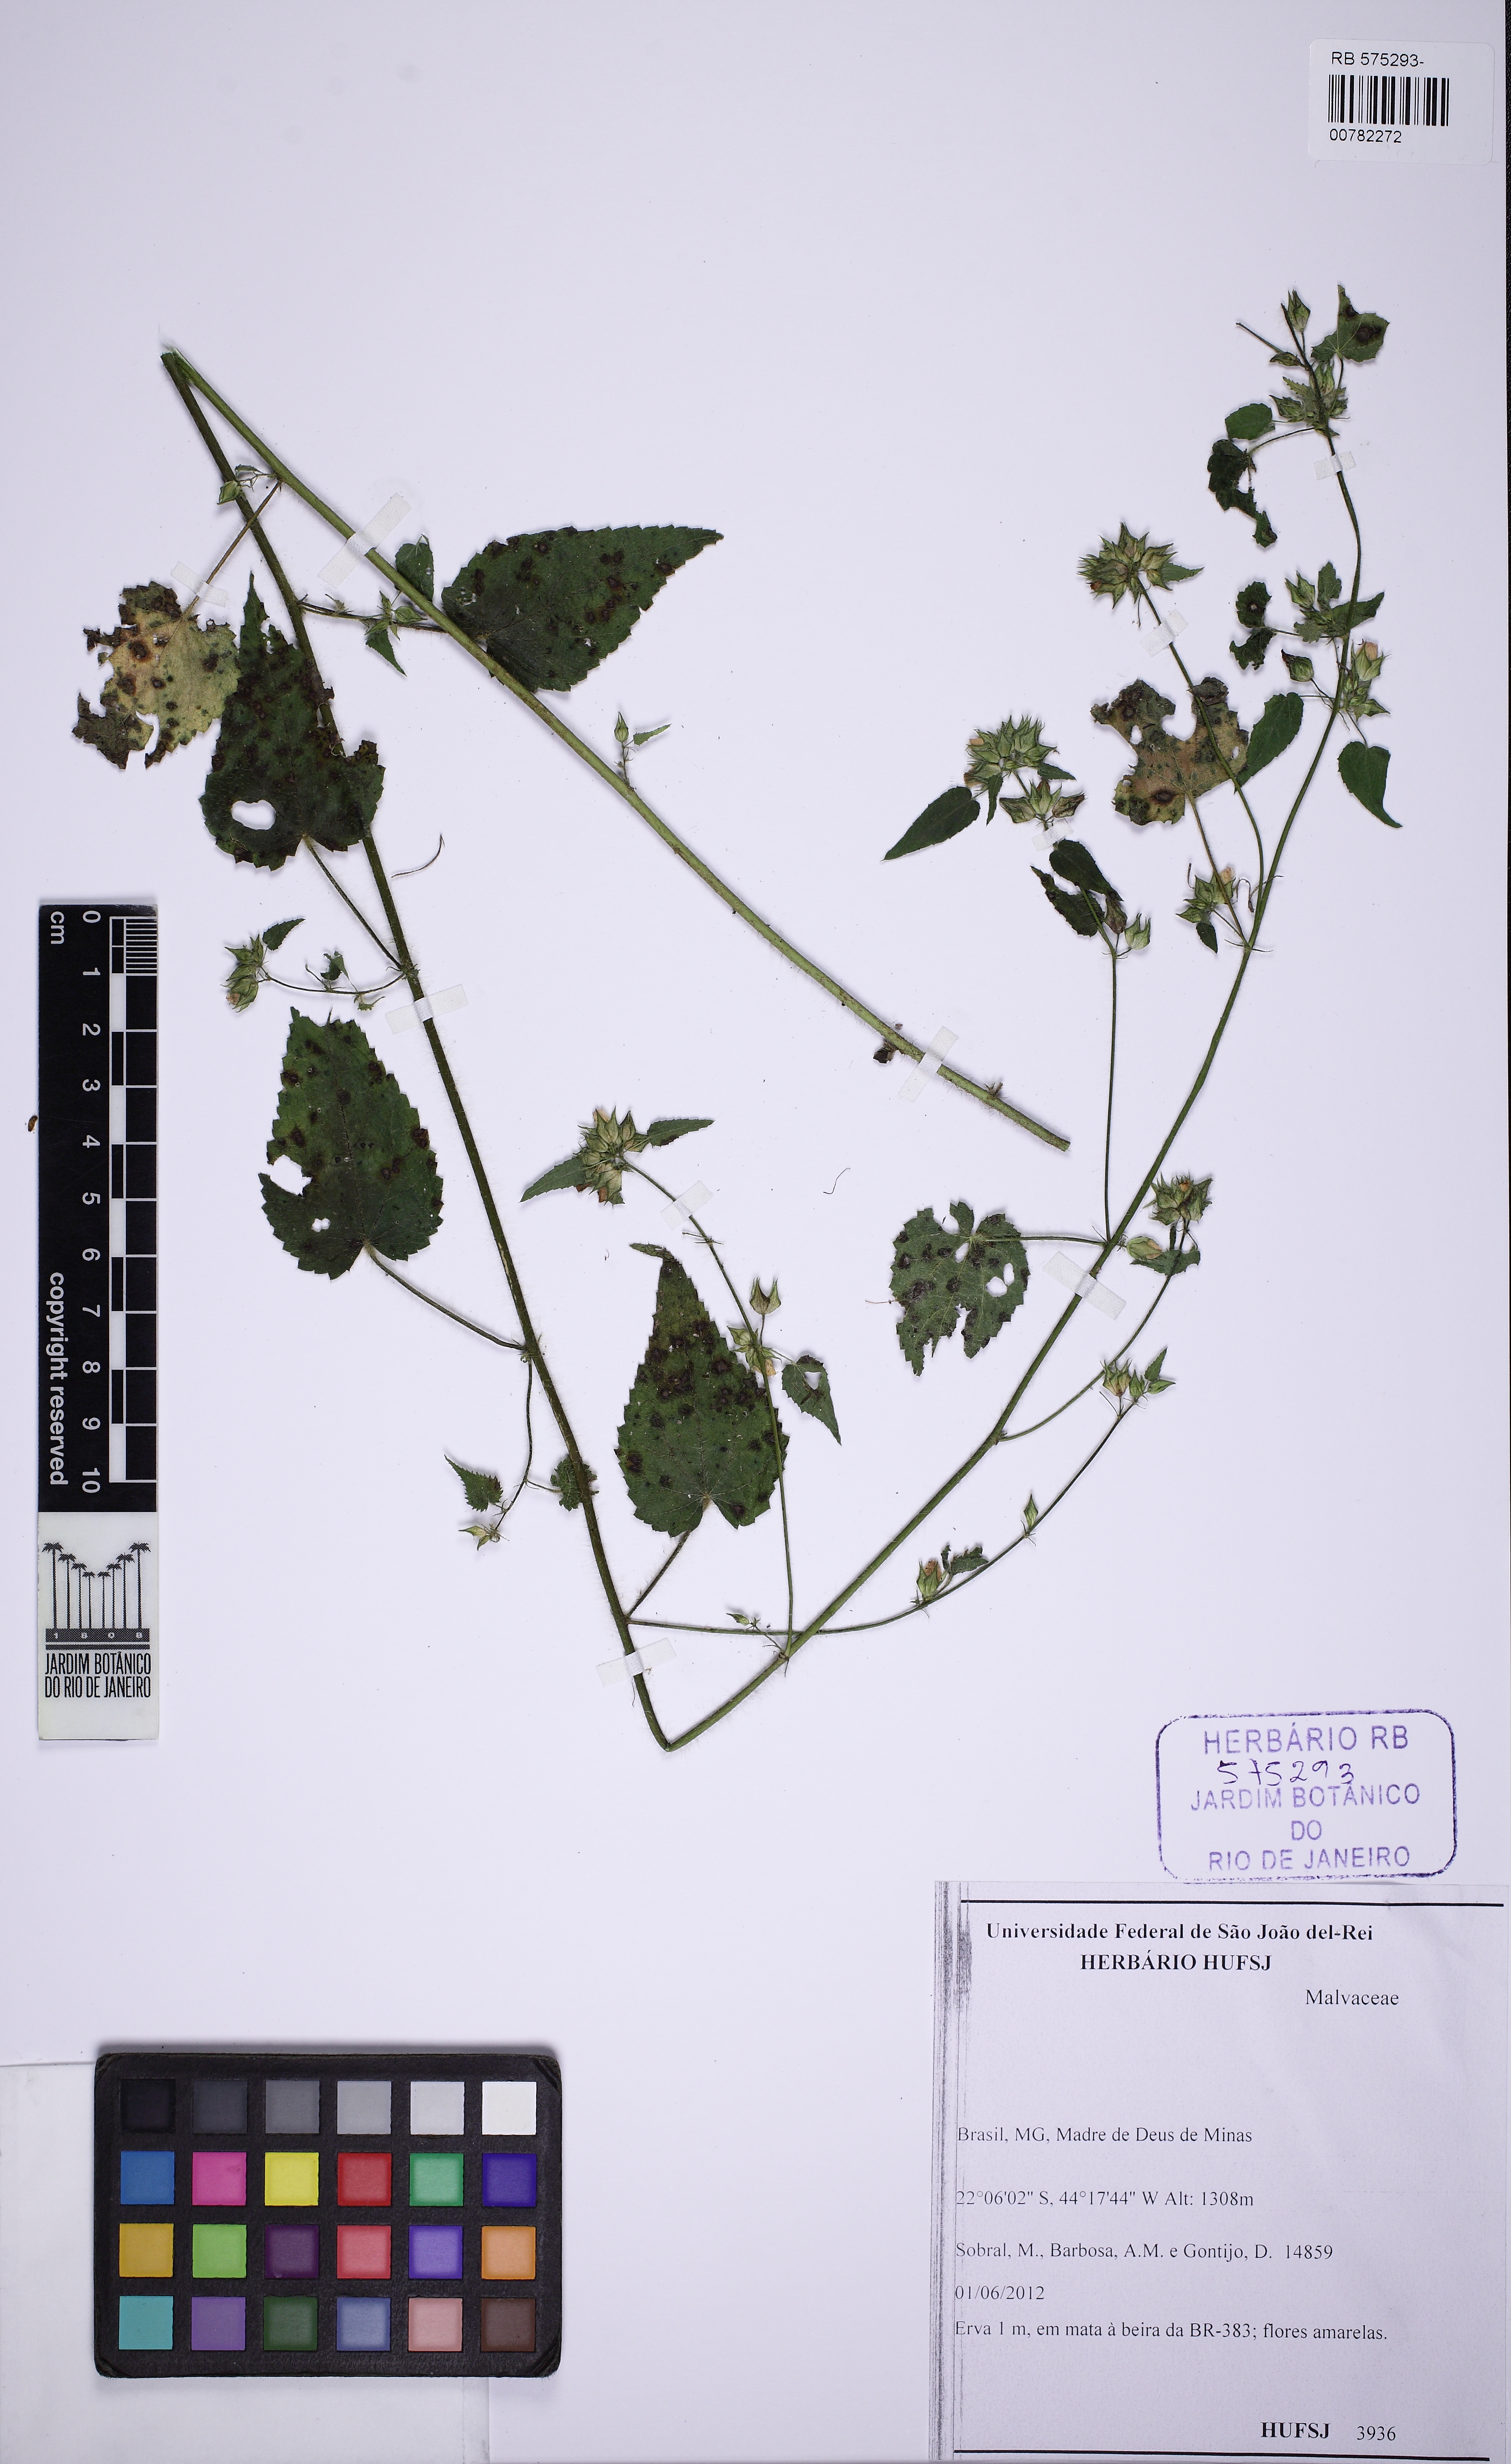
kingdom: Plantae
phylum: Tracheophyta
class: Magnoliopsida
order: Malvales
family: Malvaceae
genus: Sida
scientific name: Sida urens
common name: Tropical fanpetals
